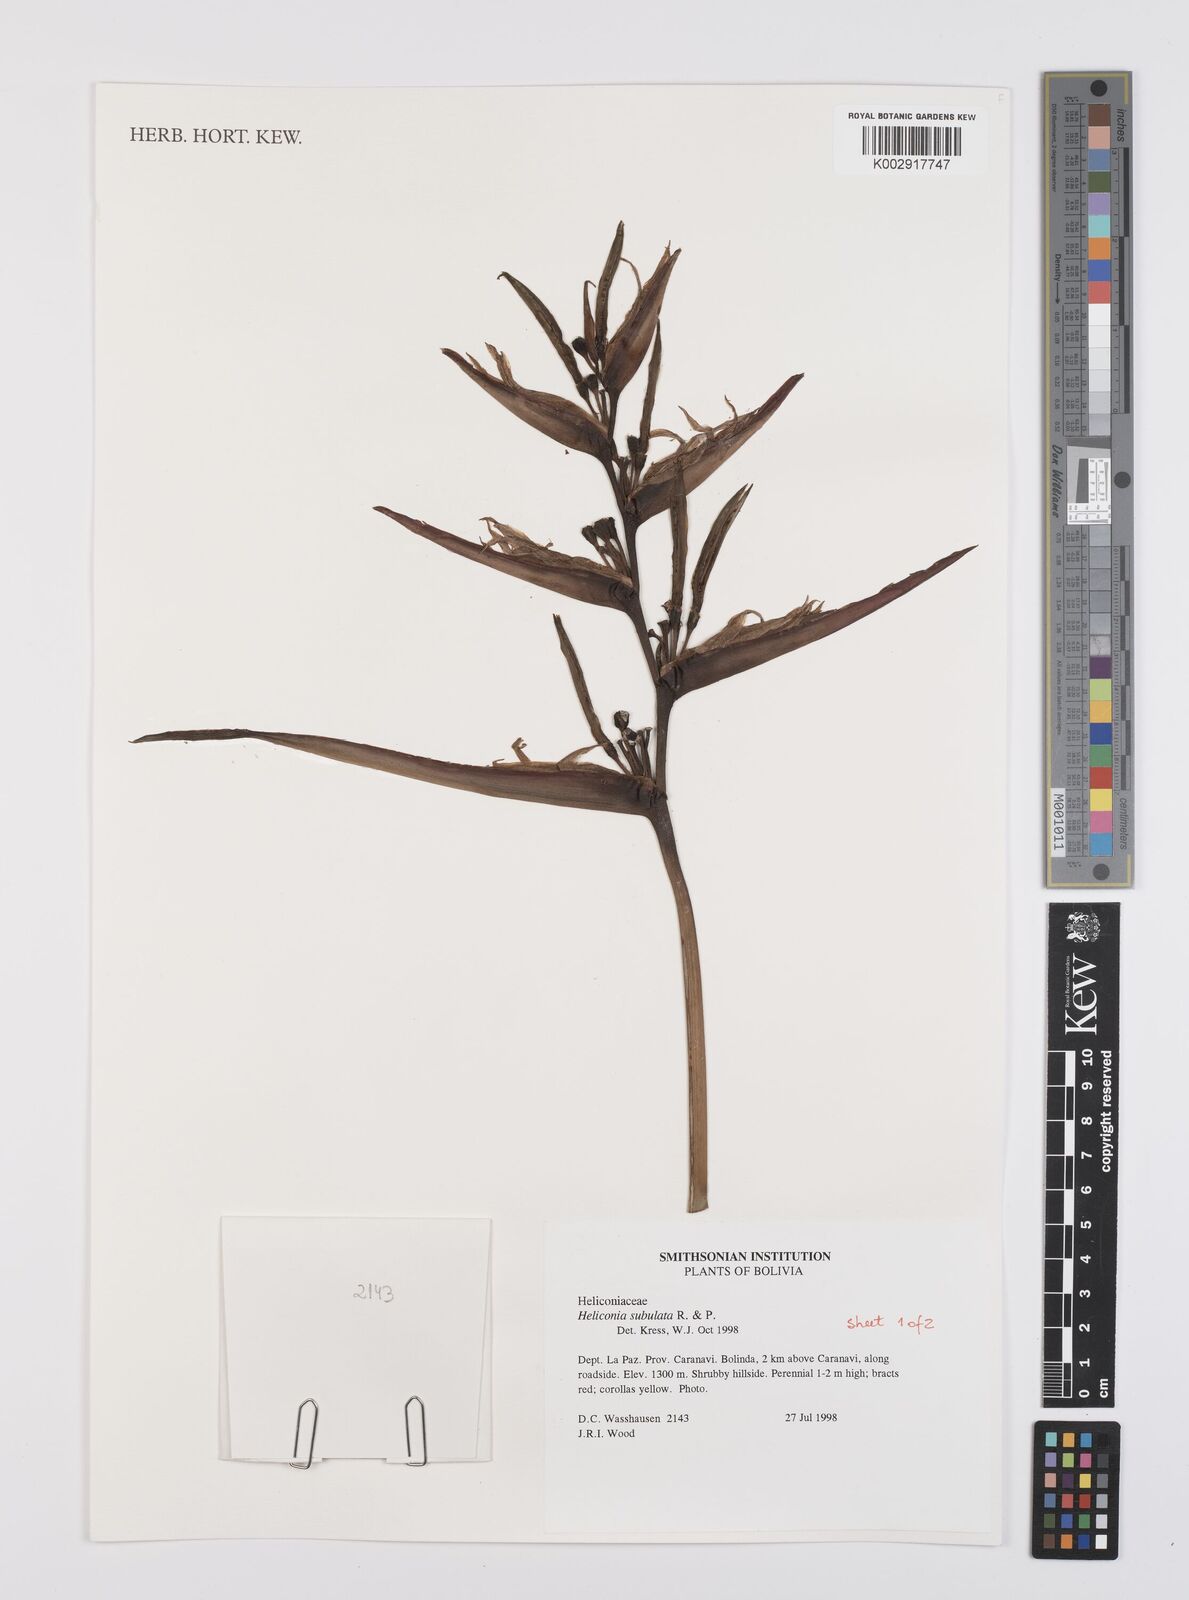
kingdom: Plantae
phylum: Tracheophyta
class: Liliopsida
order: Zingiberales
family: Heliconiaceae
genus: Heliconia
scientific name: Heliconia subulata
